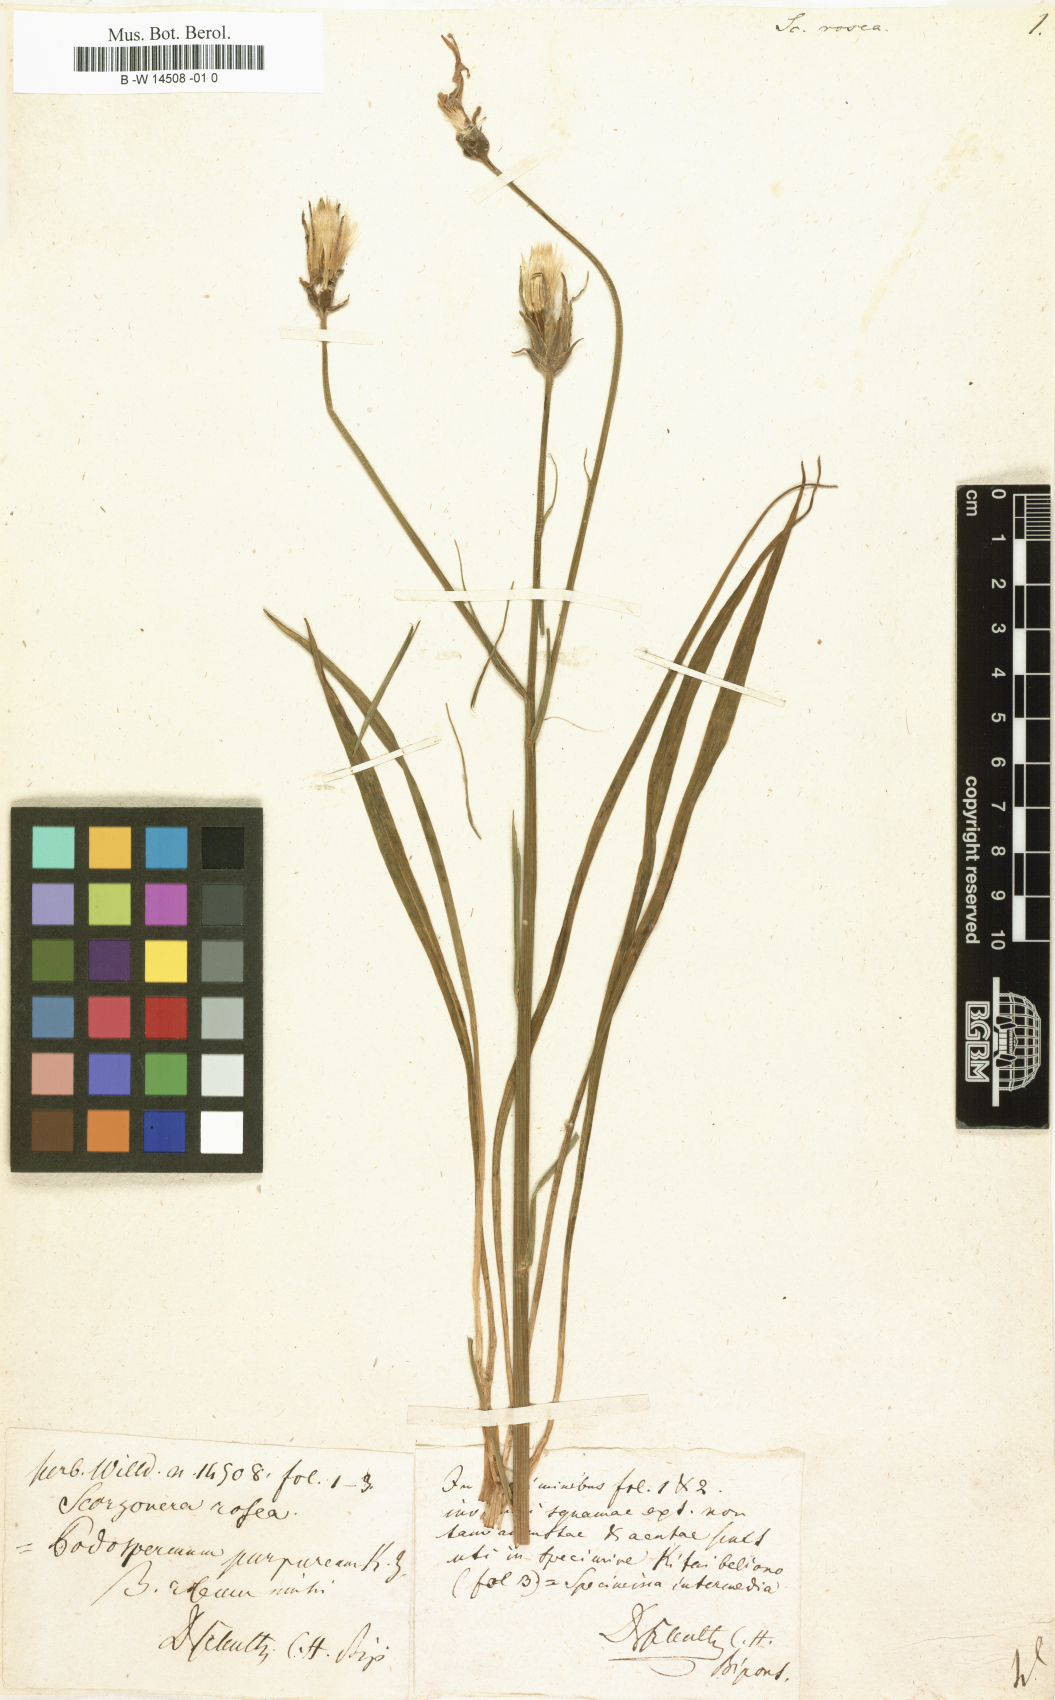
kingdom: Plantae
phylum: Tracheophyta
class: Magnoliopsida
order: Asterales
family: Asteraceae
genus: Scorzonera
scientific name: Scorzonera rosea
